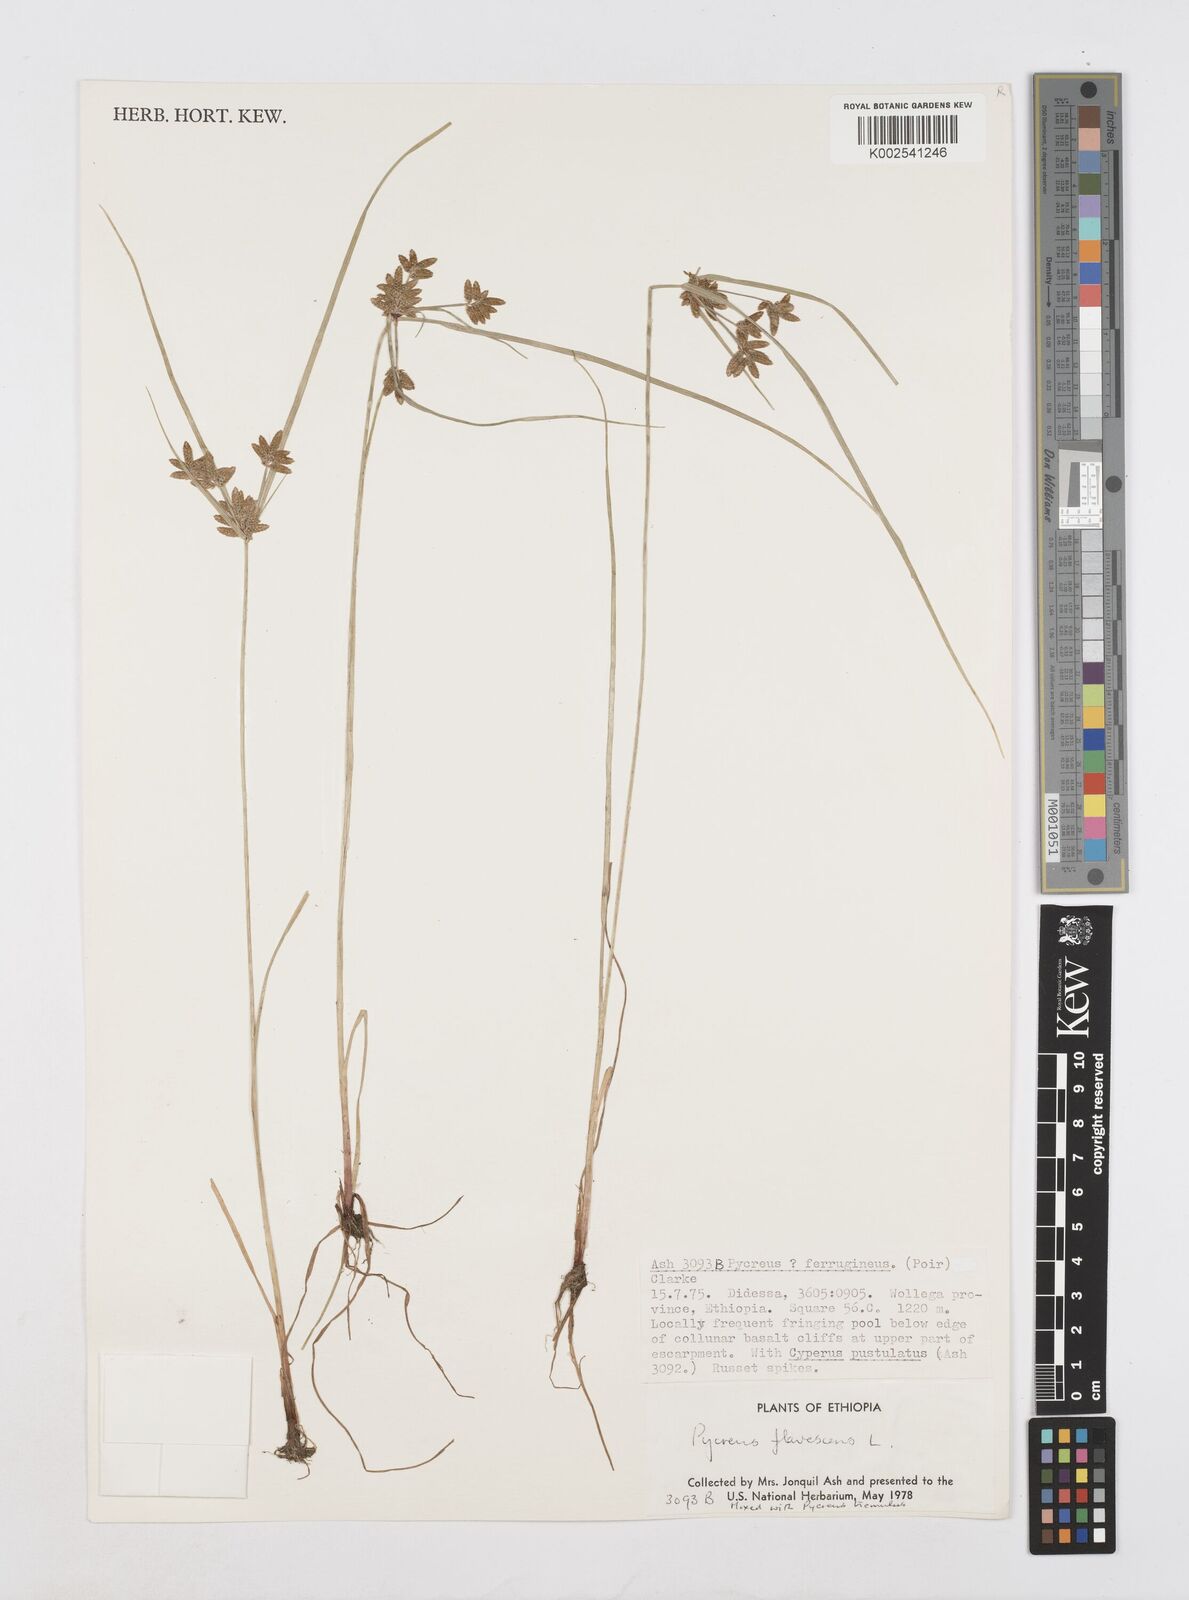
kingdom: Plantae
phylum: Tracheophyta
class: Liliopsida
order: Poales
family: Cyperaceae
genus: Cyperus
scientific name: Cyperus flavescens
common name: Yellow galingale
